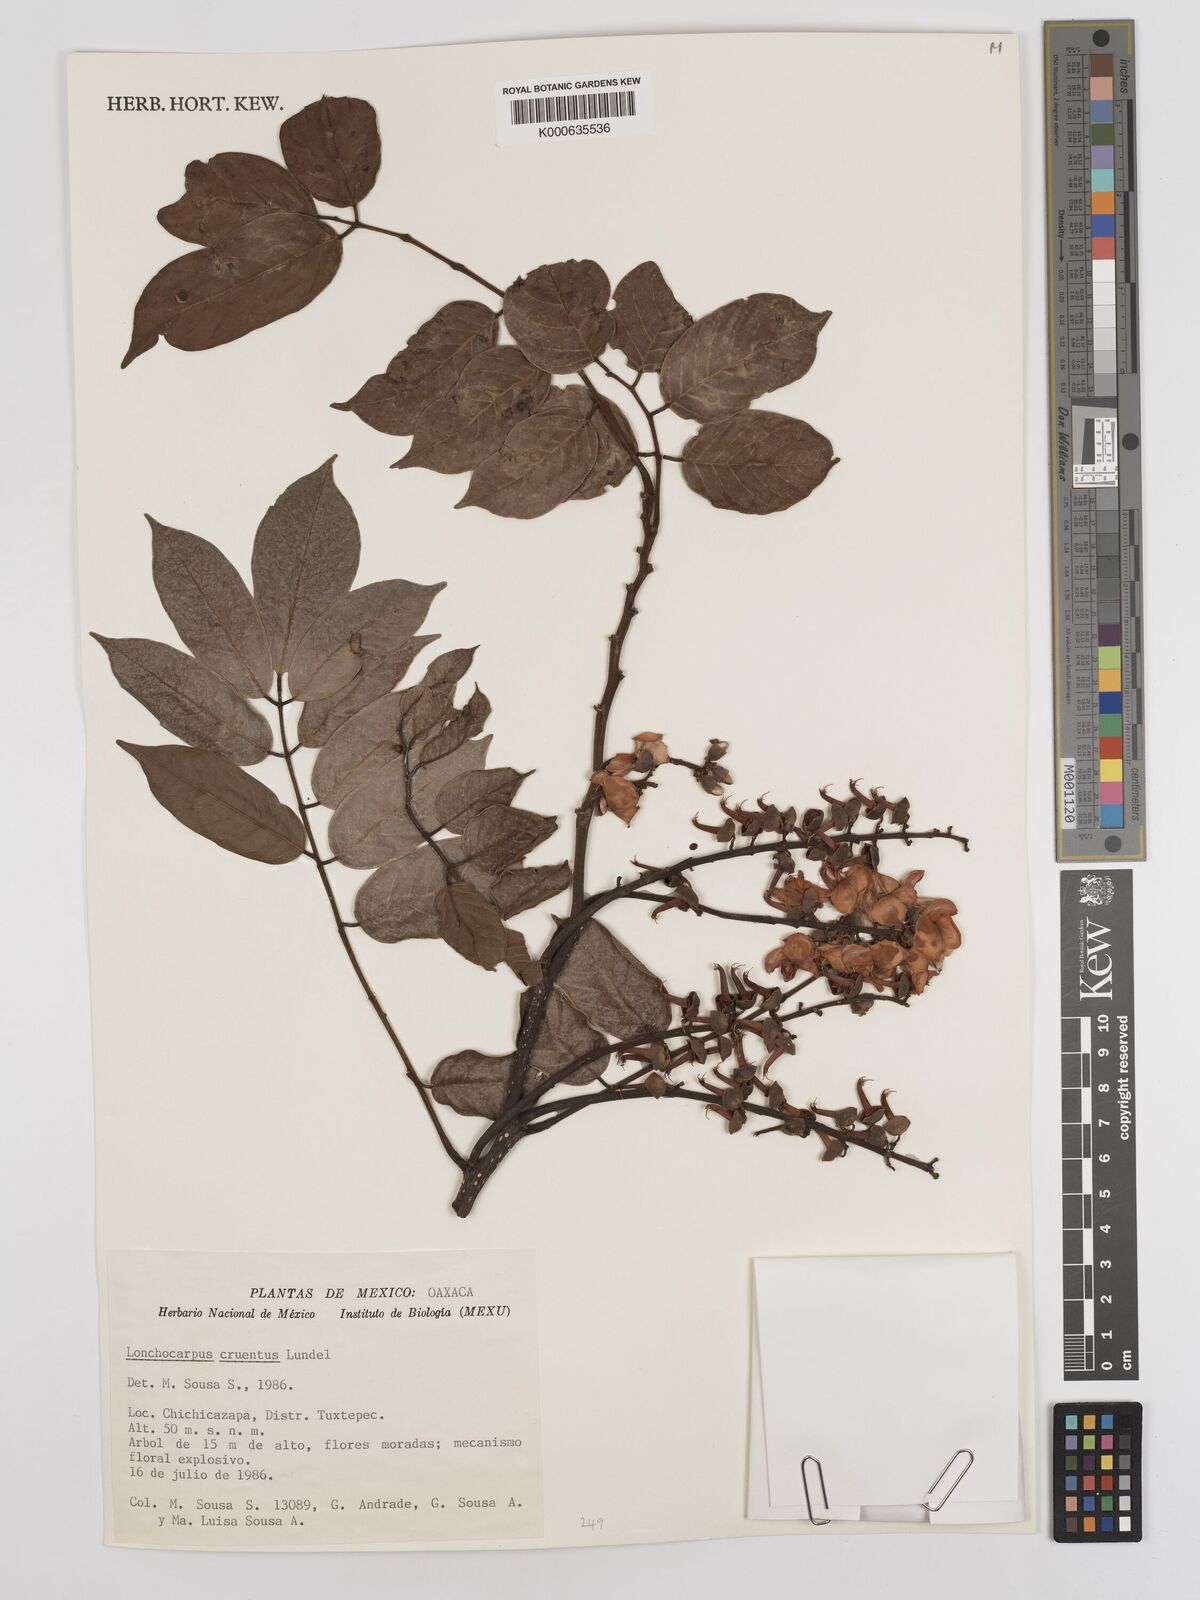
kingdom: Plantae
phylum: Tracheophyta
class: Magnoliopsida
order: Fabales
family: Fabaceae
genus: Lonchocarpus
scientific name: Lonchocarpus cruentus
